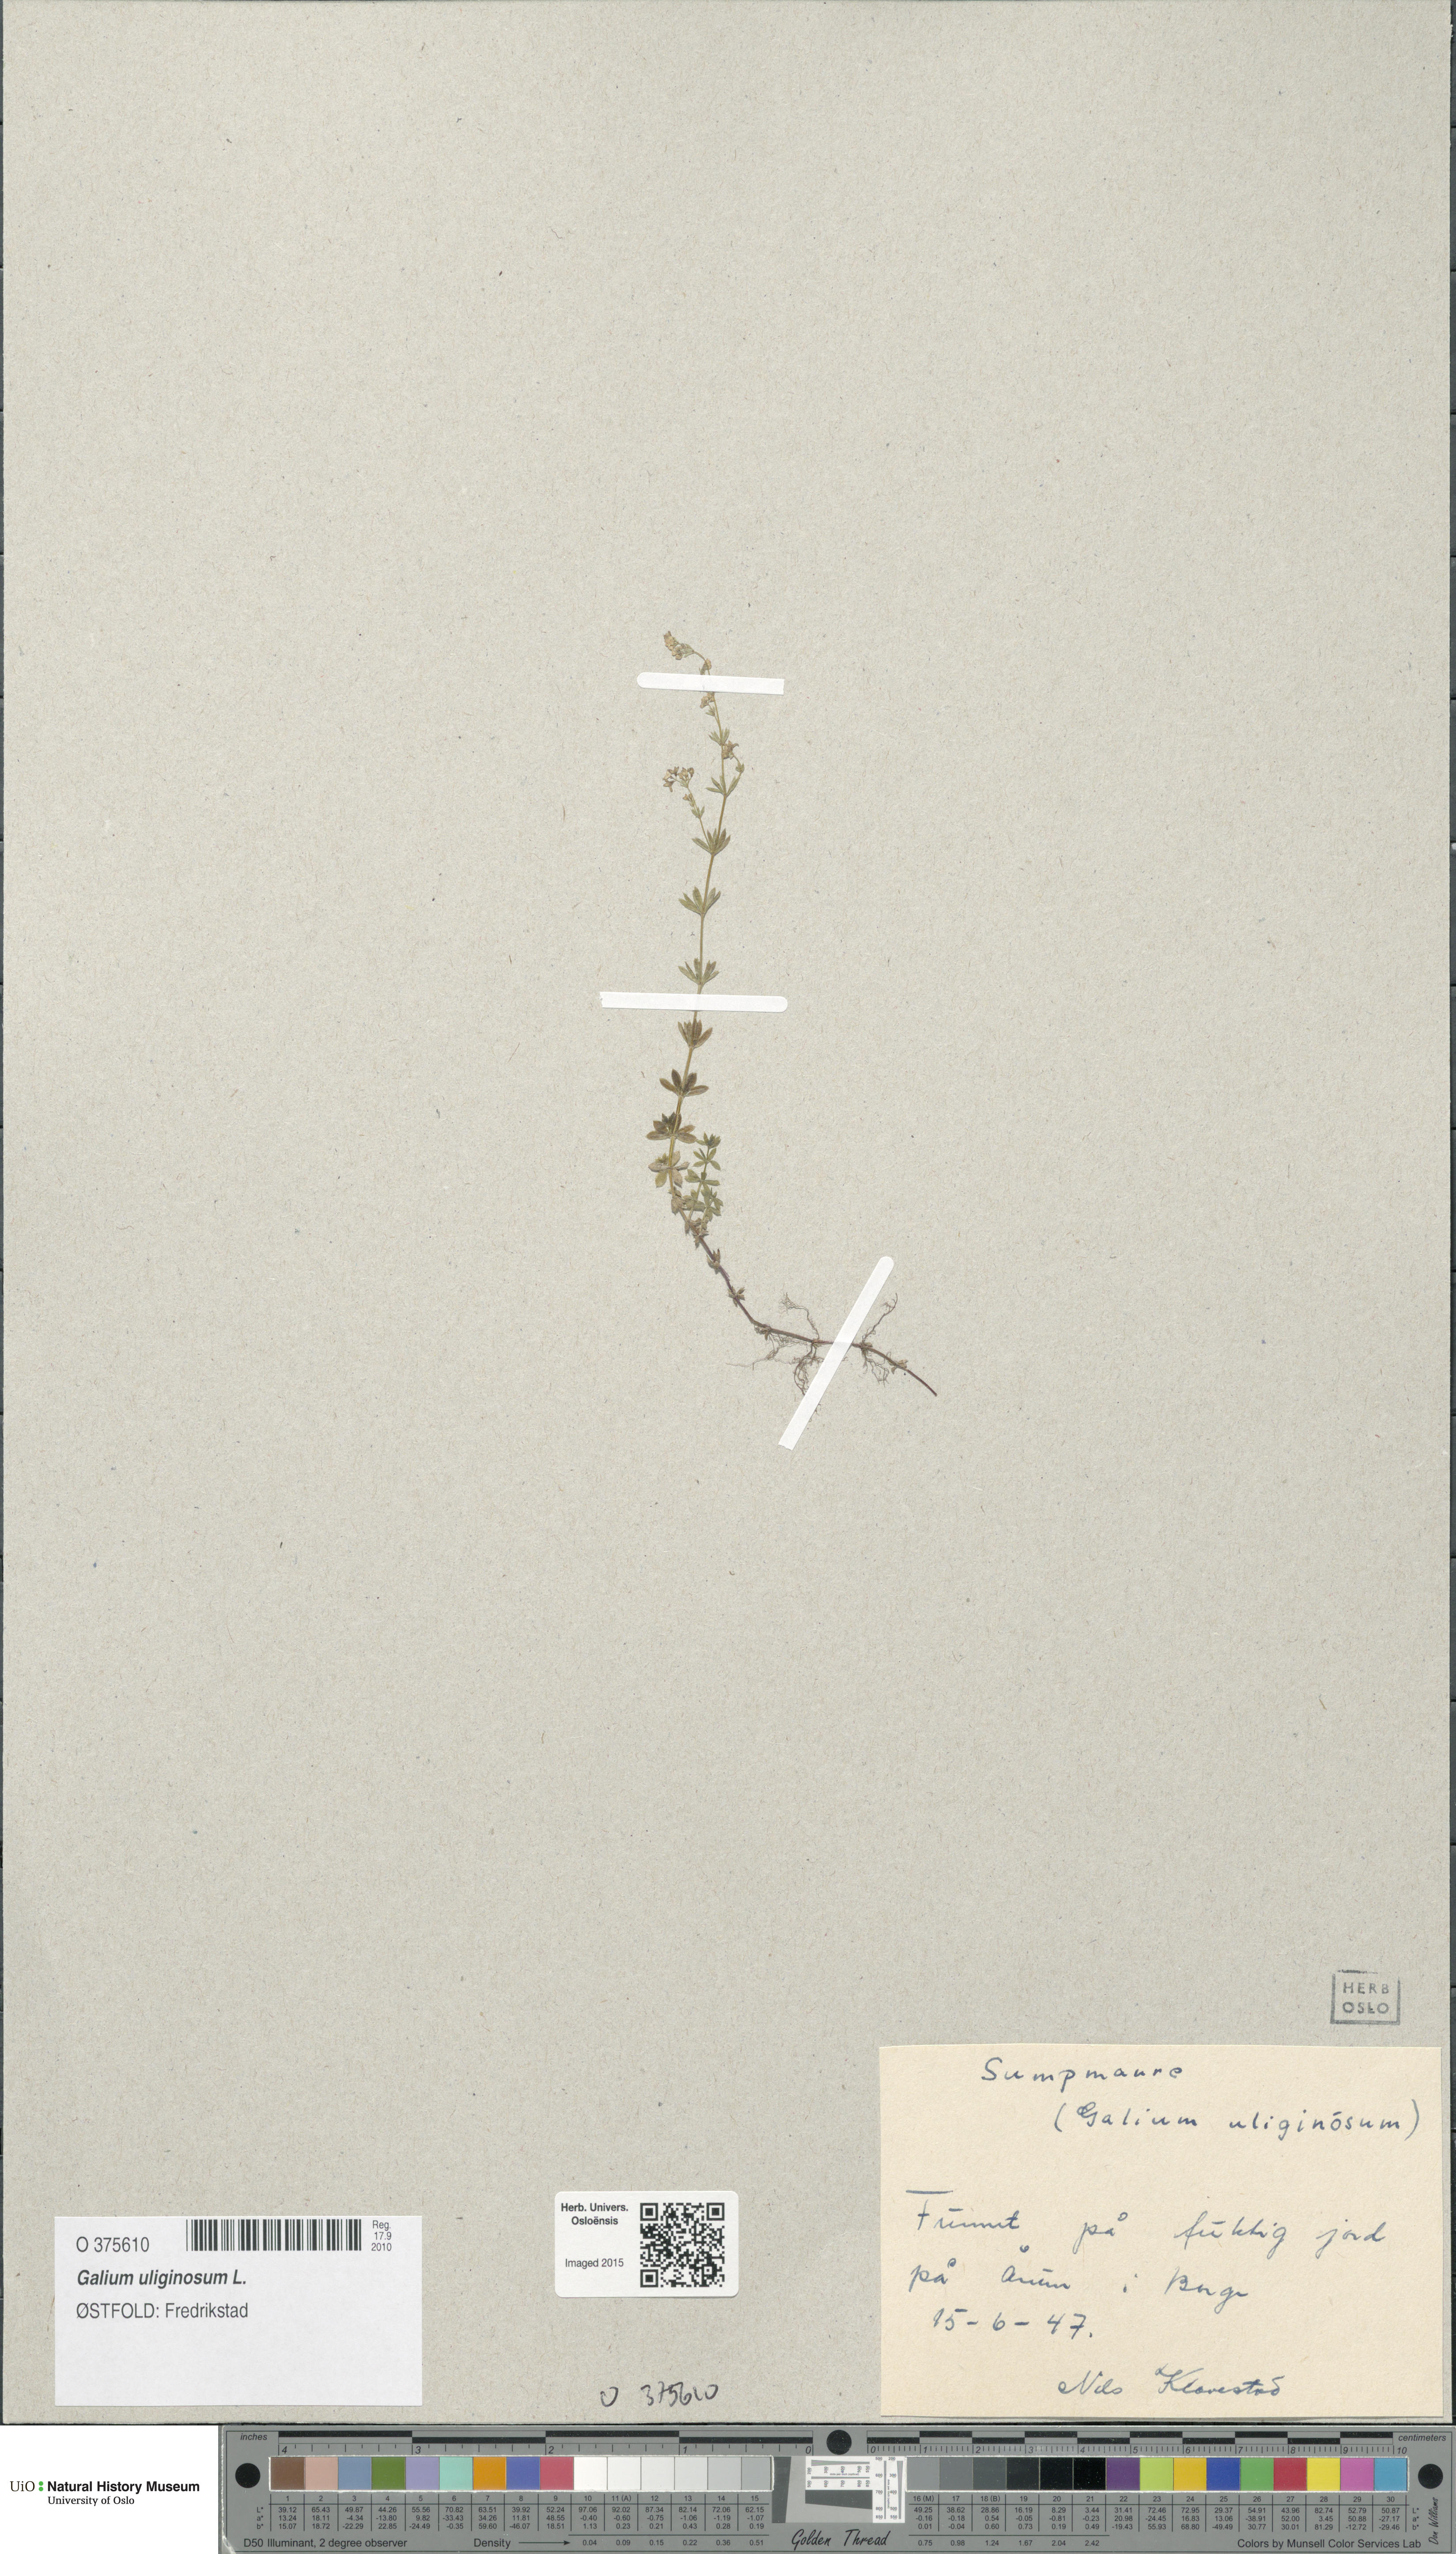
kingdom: Plantae
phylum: Tracheophyta
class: Magnoliopsida
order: Gentianales
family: Rubiaceae
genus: Galium
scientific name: Galium uliginosum
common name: Fen bedstraw
